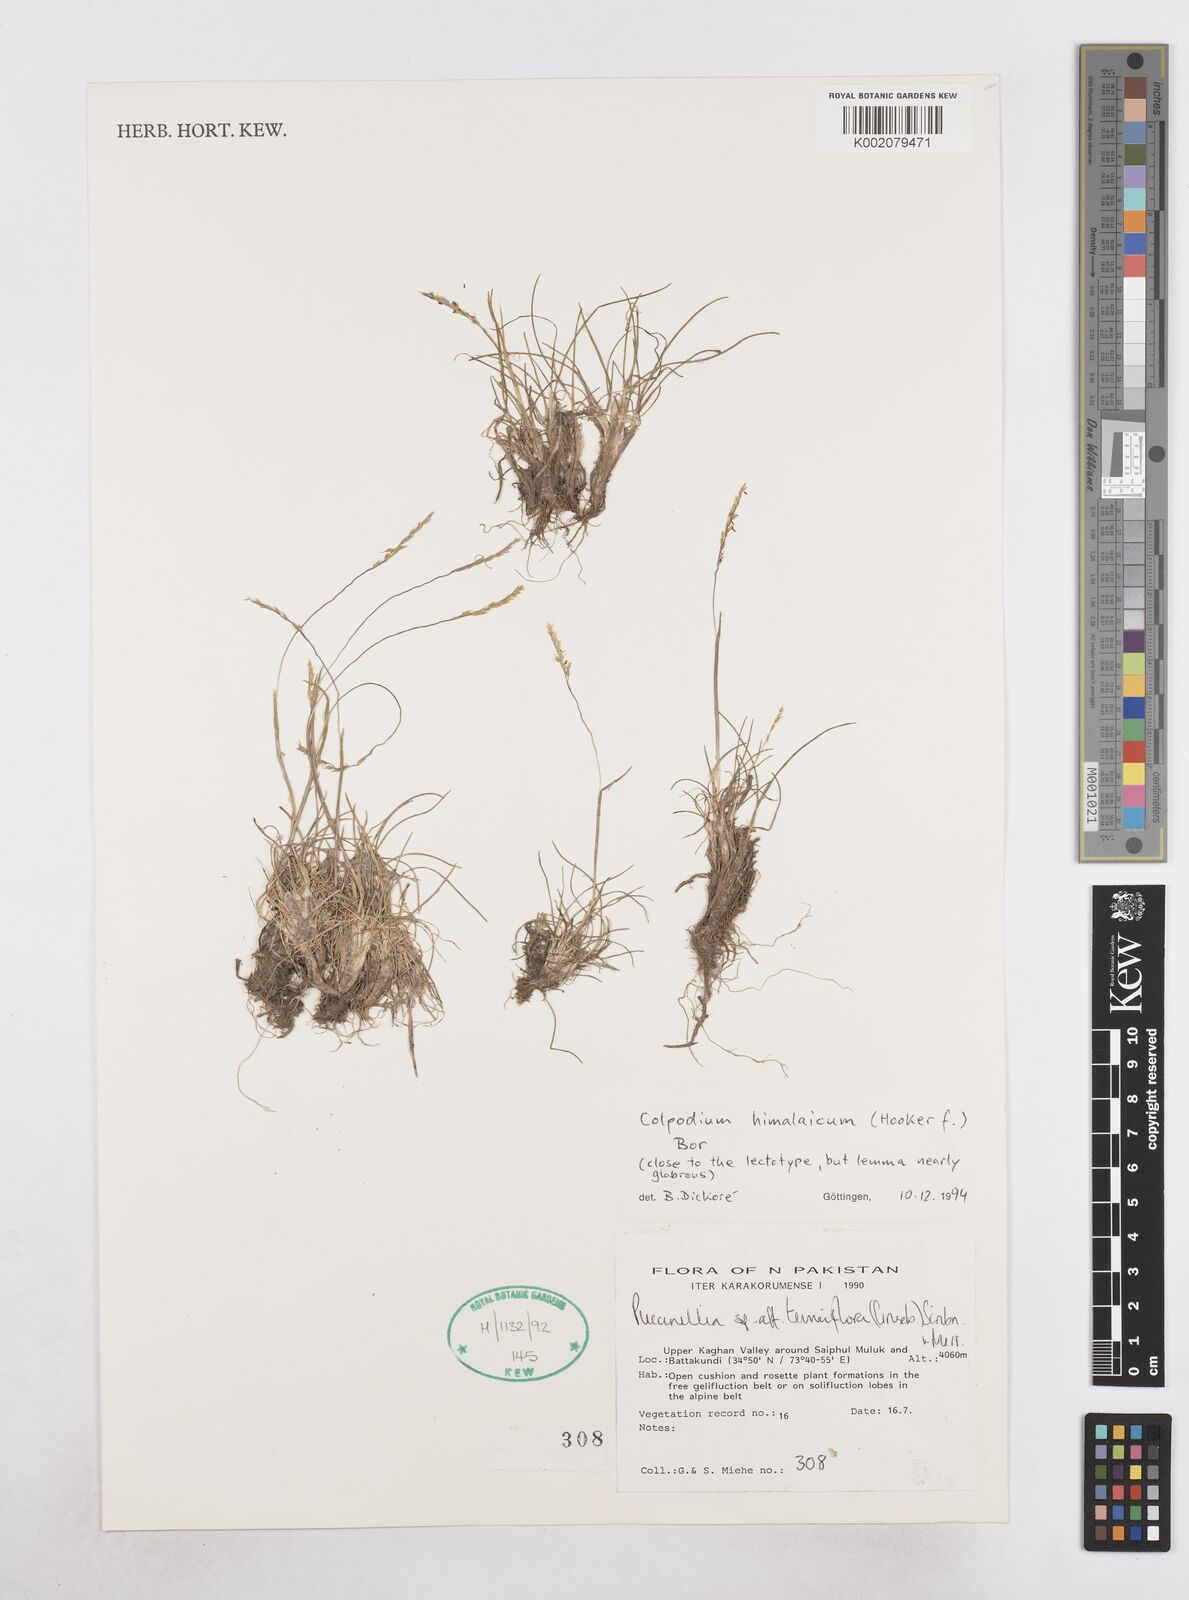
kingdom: Plantae
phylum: Tracheophyta
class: Liliopsida
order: Poales
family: Poaceae
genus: Catabrosella
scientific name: Catabrosella himalaica
